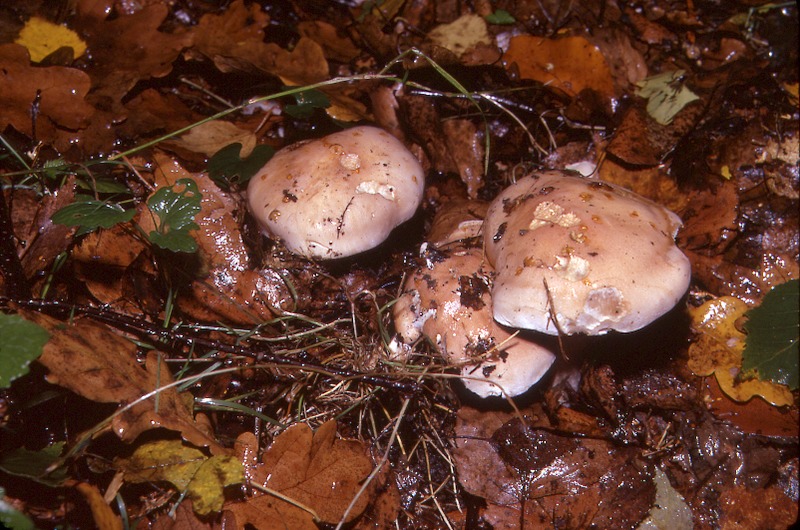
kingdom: Fungi
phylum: Basidiomycota
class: Agaricomycetes
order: Agaricales
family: Hymenogastraceae
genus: Hebeloma
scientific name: Hebeloma sinapizans
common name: Bitter poisonpie
